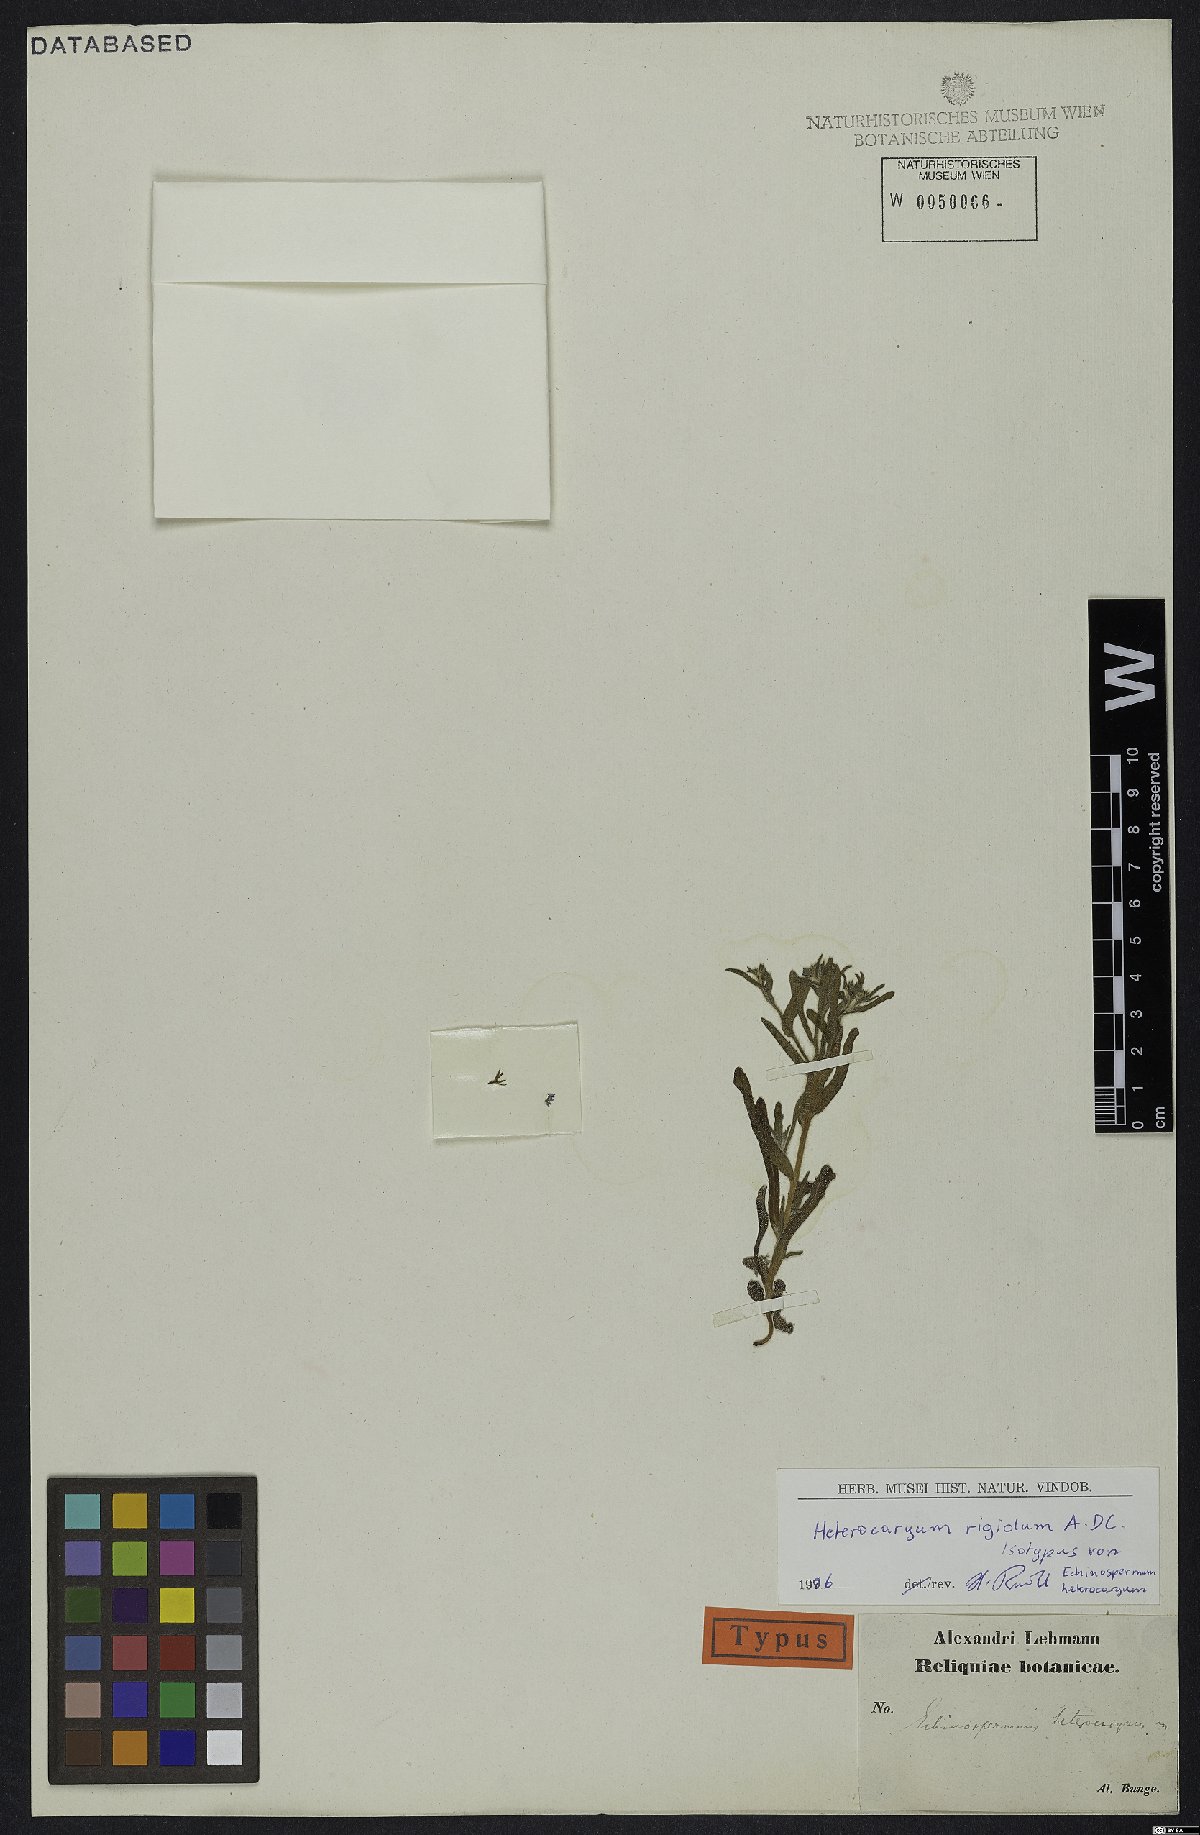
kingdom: Plantae
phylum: Tracheophyta
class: Magnoliopsida
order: Boraginales
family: Boraginaceae
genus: Pseudoheterocaryum
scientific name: Pseudoheterocaryum rigidum
